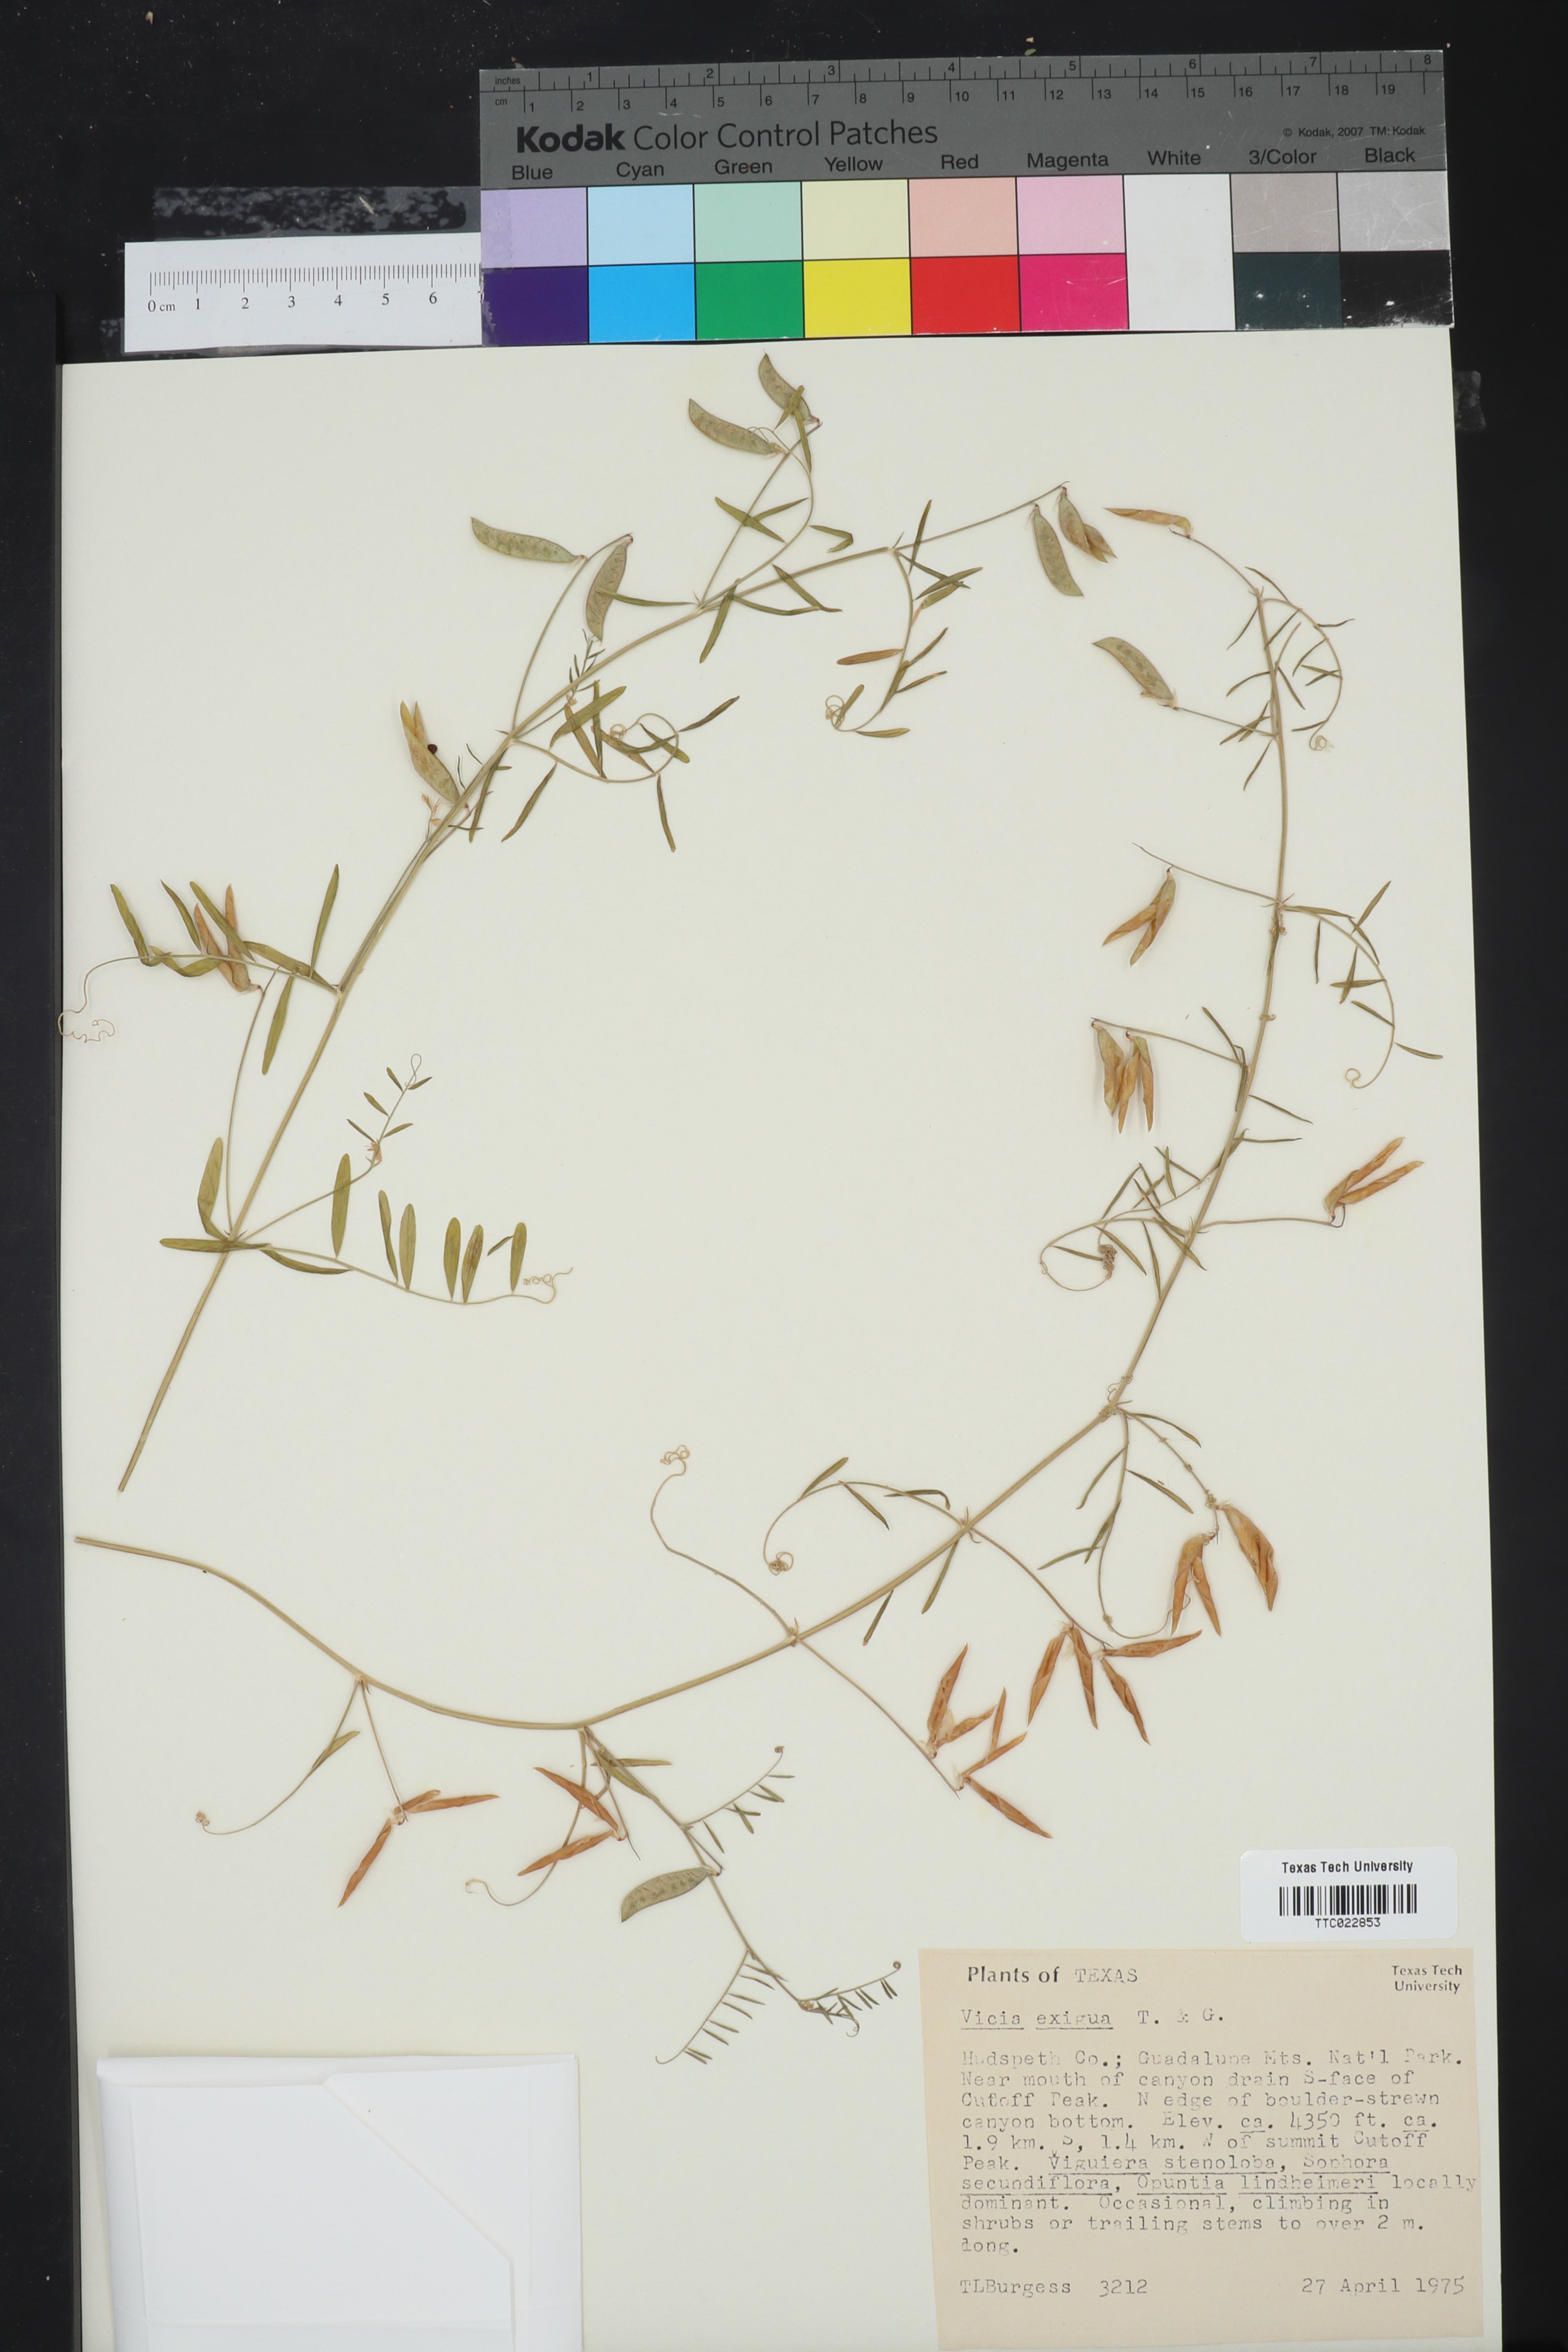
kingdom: Plantae
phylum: Tracheophyta
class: Magnoliopsida
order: Fabales
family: Fabaceae
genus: Vicia
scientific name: Vicia ludoviciana
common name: Louisiana vetch
